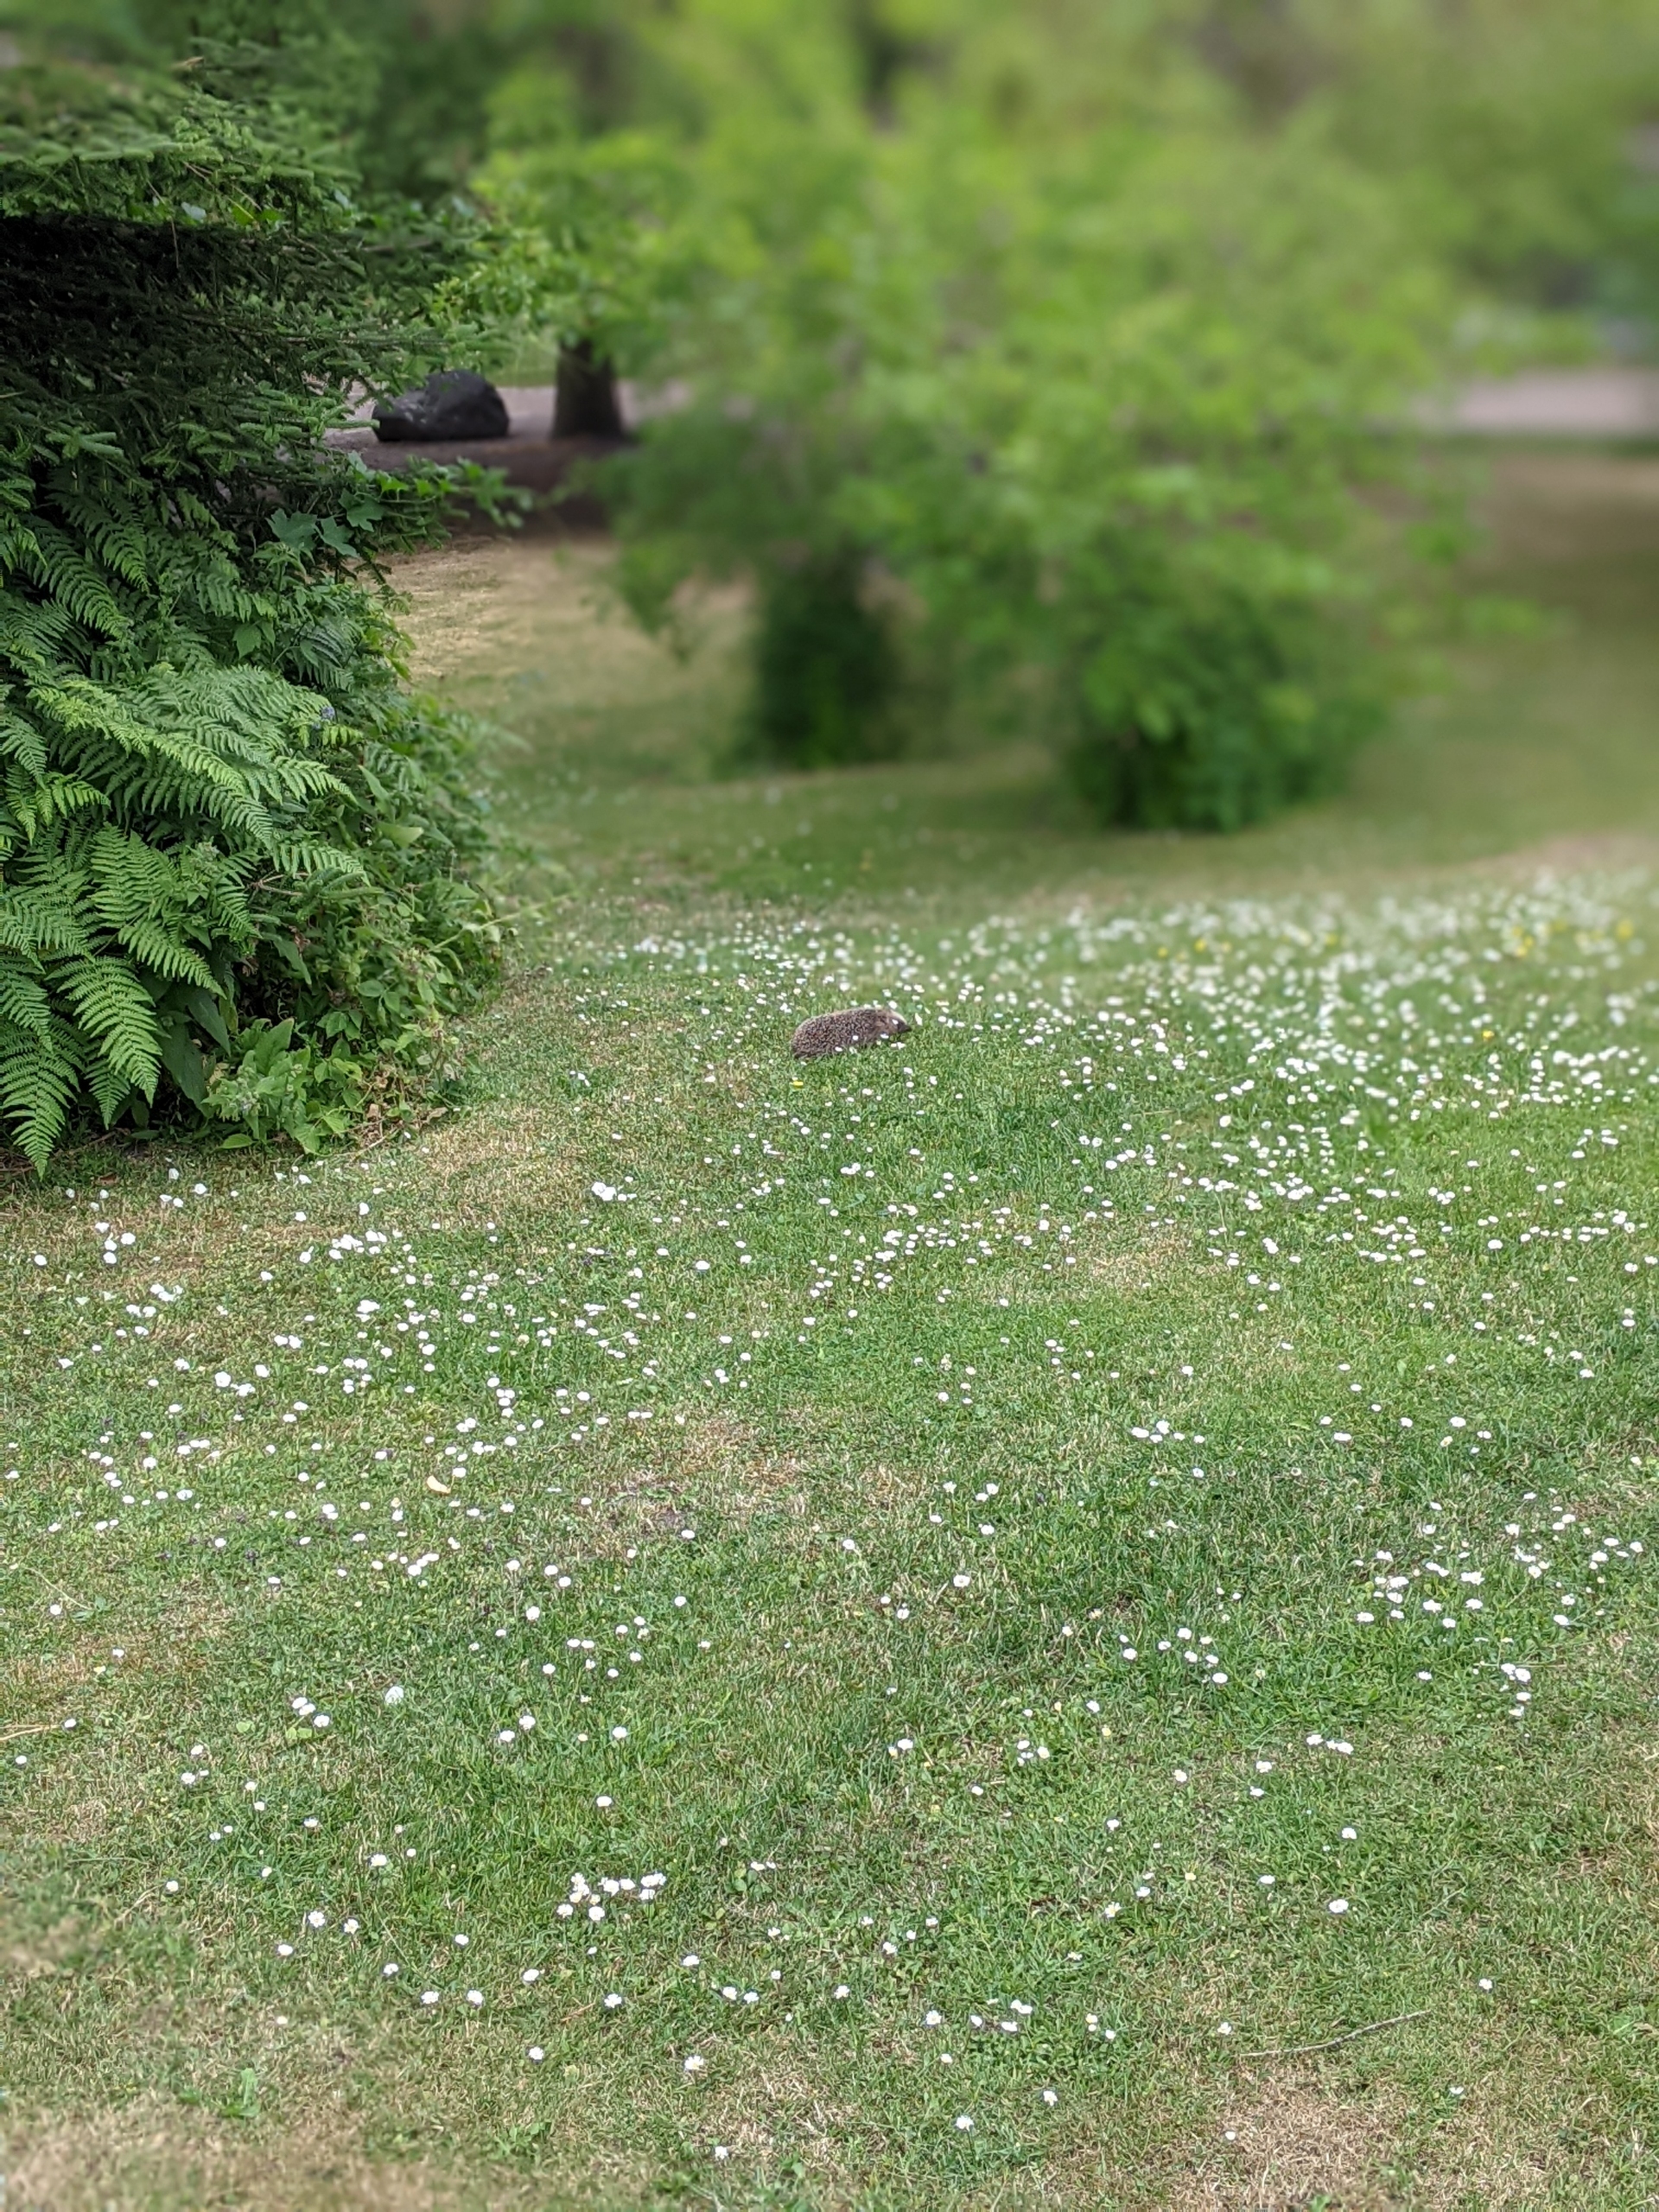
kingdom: Animalia
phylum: Chordata
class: Mammalia
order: Erinaceomorpha
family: Erinaceidae
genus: Erinaceus
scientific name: Erinaceus europaeus
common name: Pindsvin
